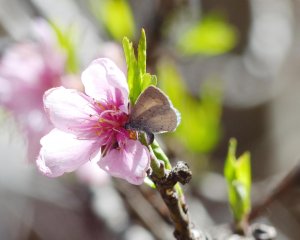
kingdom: Animalia
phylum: Arthropoda
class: Insecta
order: Lepidoptera
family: Lycaenidae
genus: Celastrina
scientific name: Celastrina ladon
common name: Echo Azure
